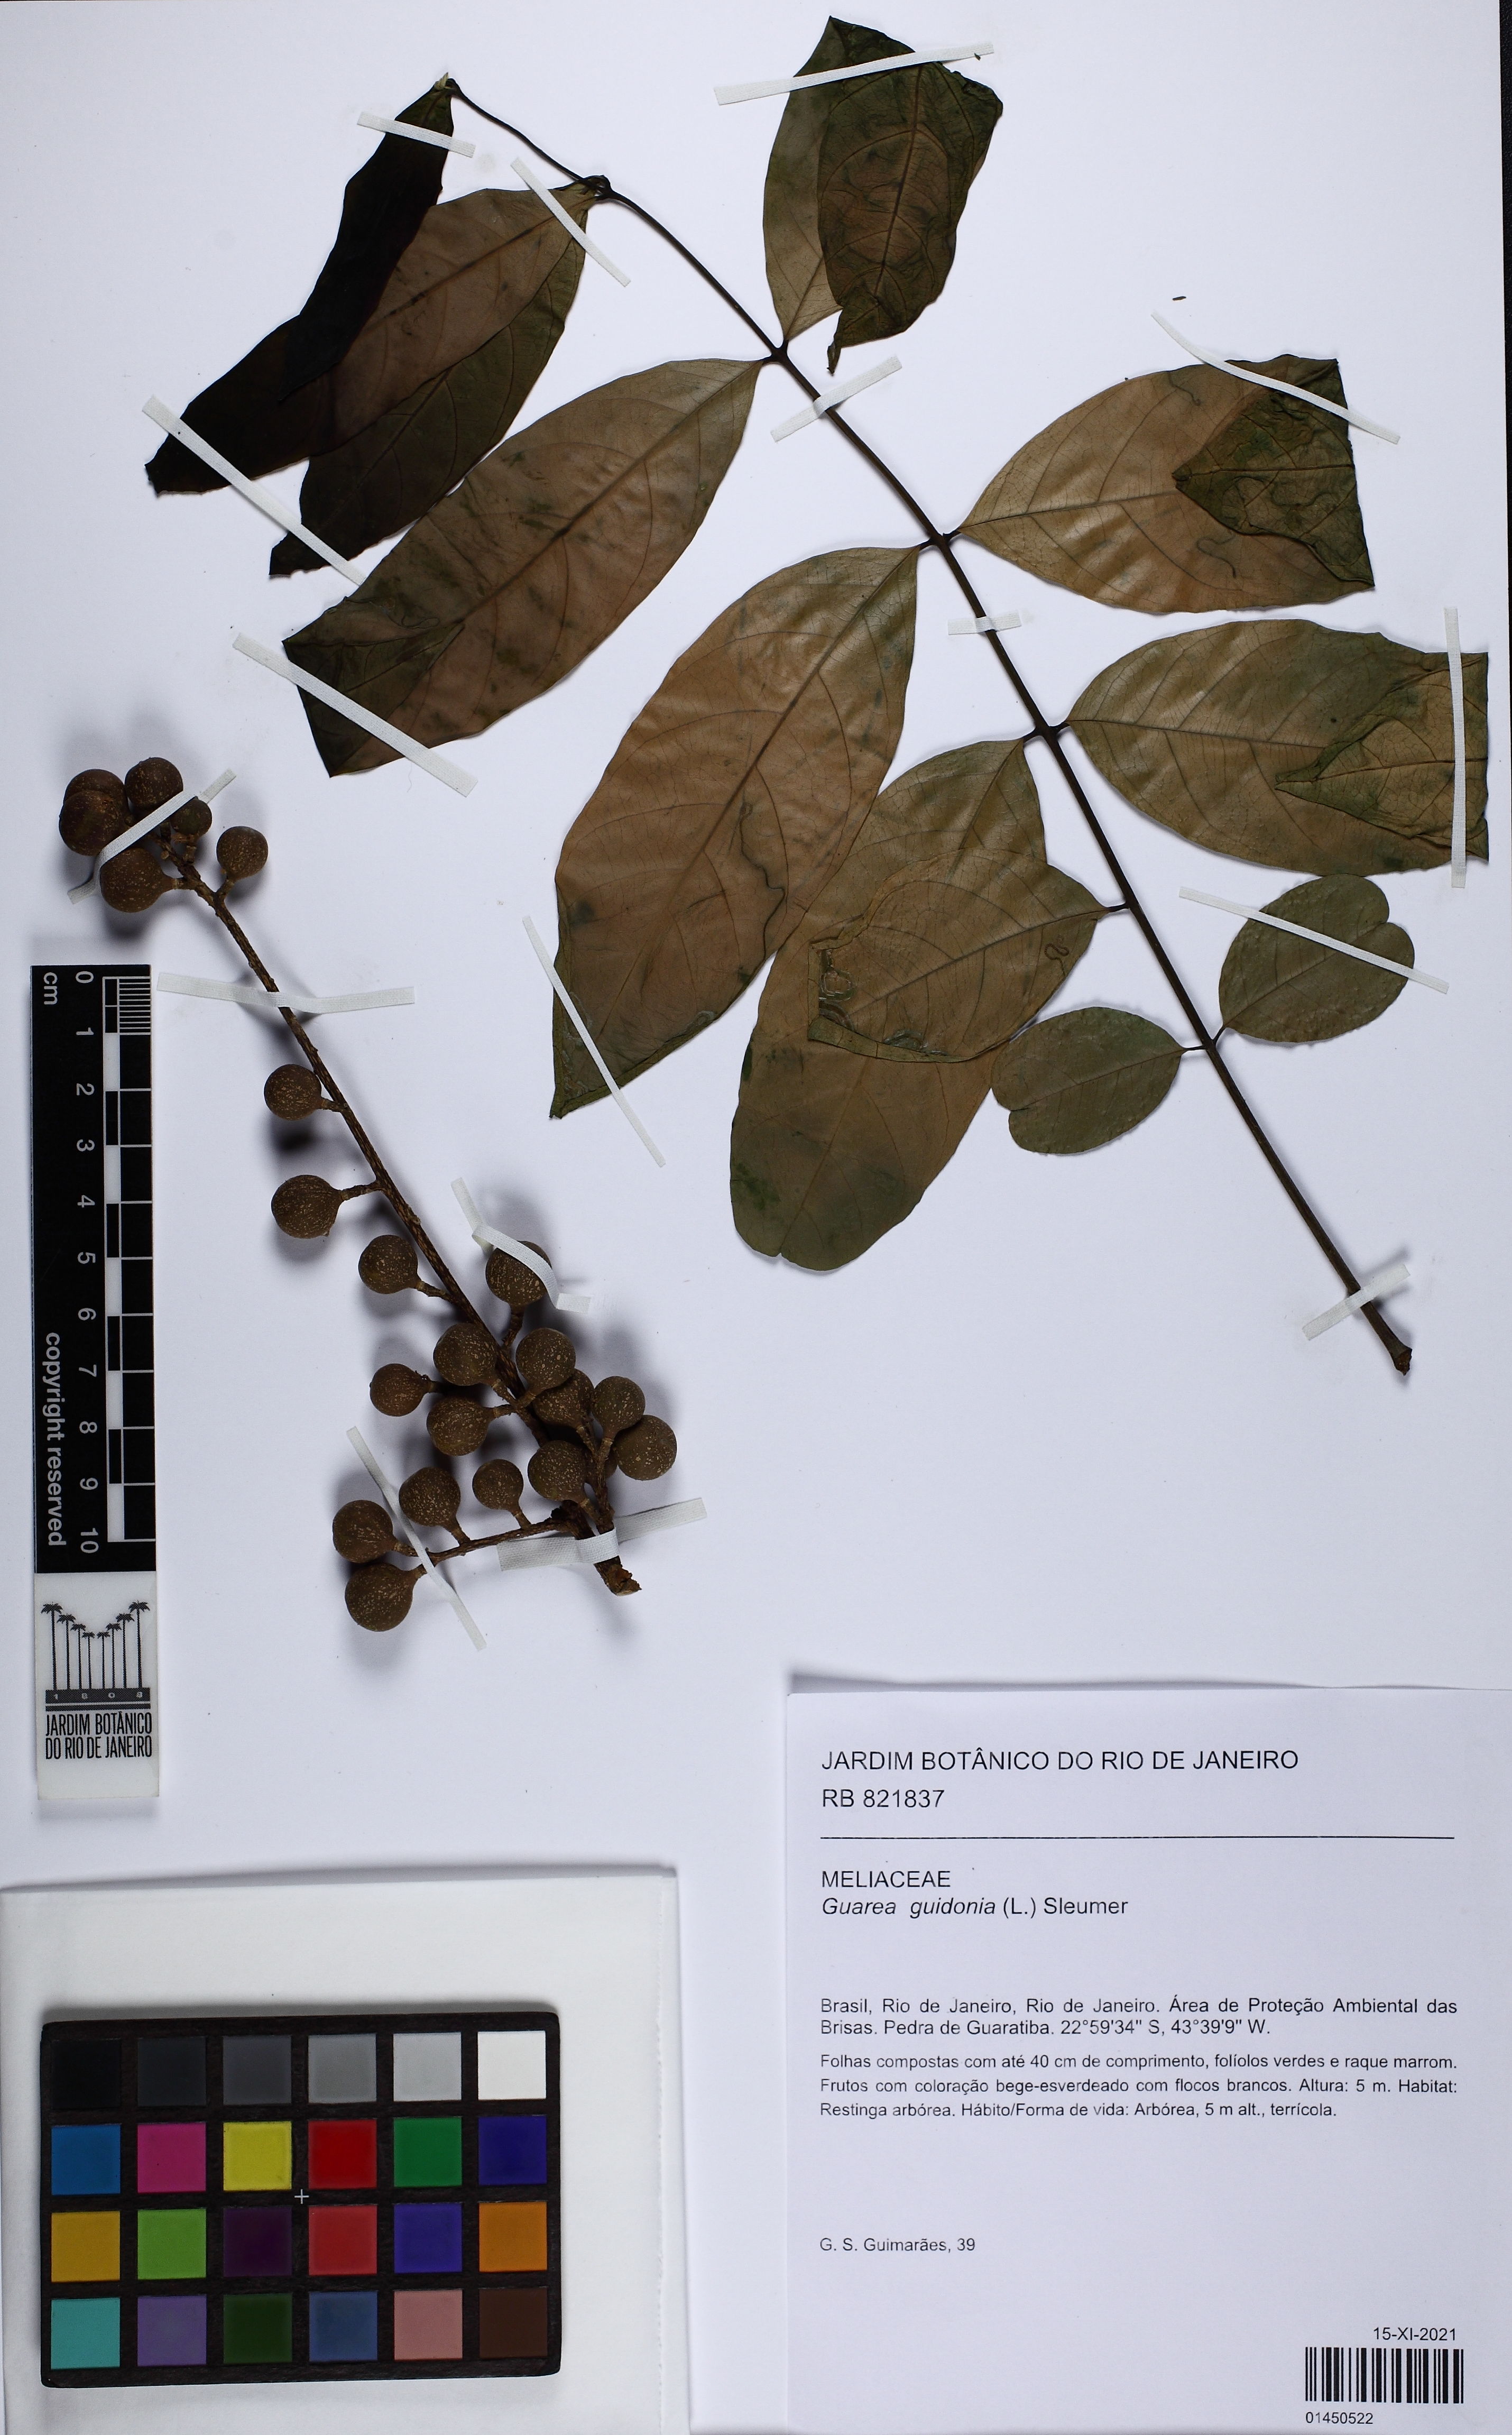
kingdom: Plantae
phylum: Tracheophyta
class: Magnoliopsida
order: Sapindales
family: Meliaceae
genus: Guarea
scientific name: Guarea guidonia
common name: American muskwood
